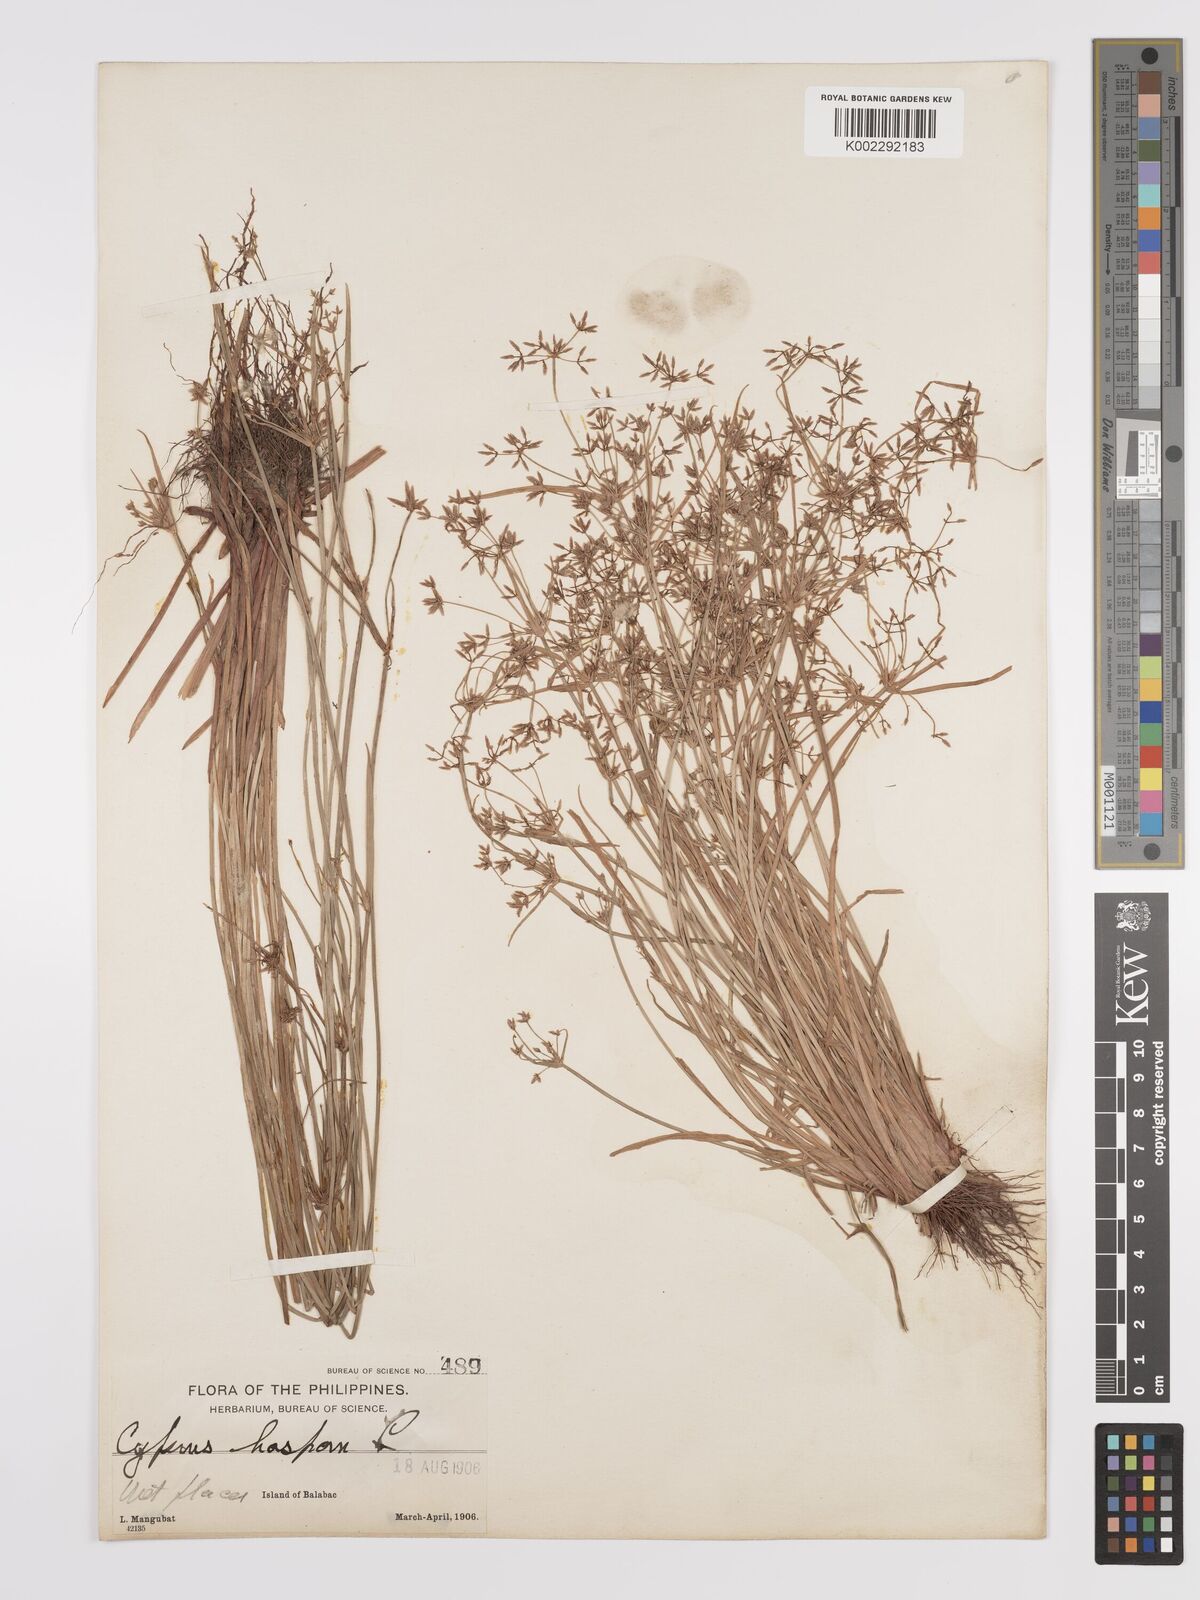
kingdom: Plantae
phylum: Tracheophyta
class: Liliopsida
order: Poales
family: Cyperaceae
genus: Cyperus
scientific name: Cyperus haspan
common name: Haspan flatsedge
